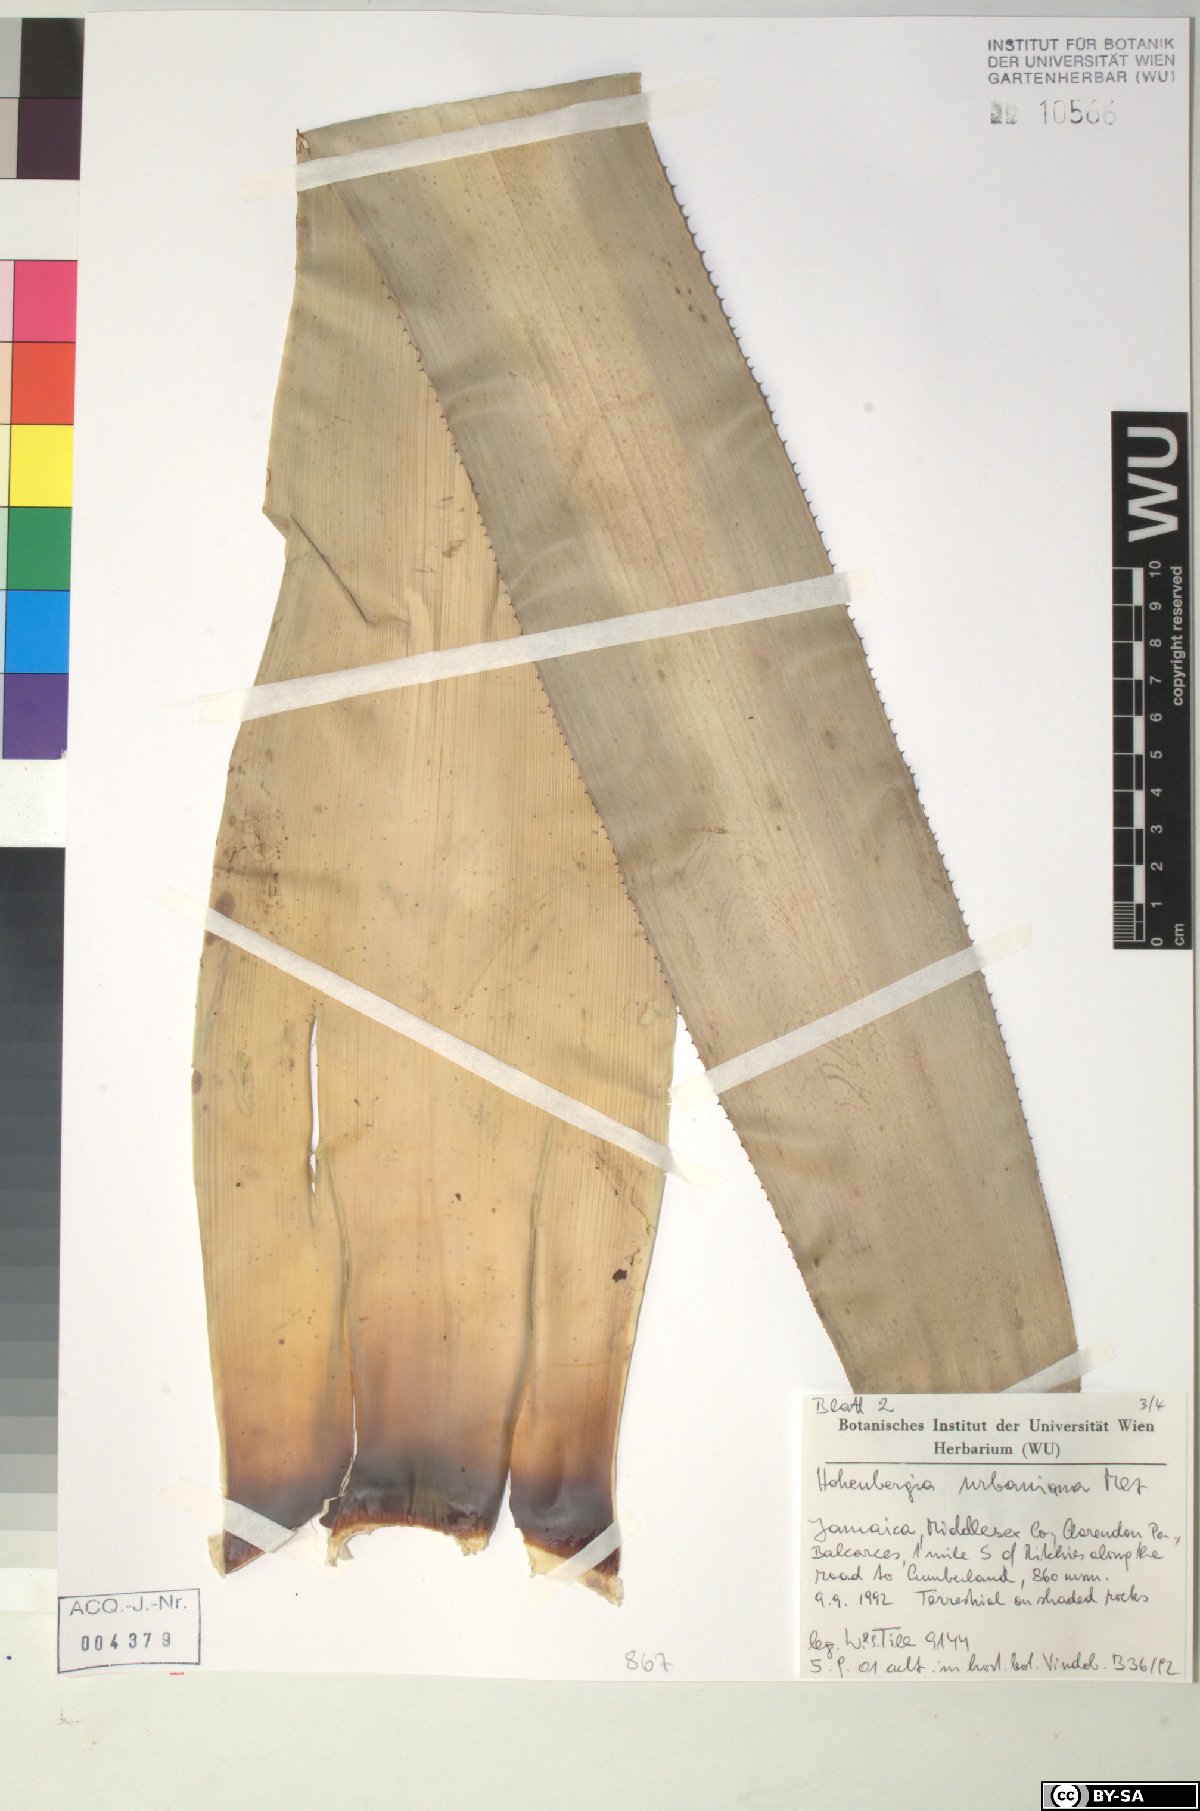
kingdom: Plantae
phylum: Tracheophyta
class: Liliopsida
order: Poales
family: Bromeliaceae
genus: Wittmackia
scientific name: Wittmackia urbaniana
